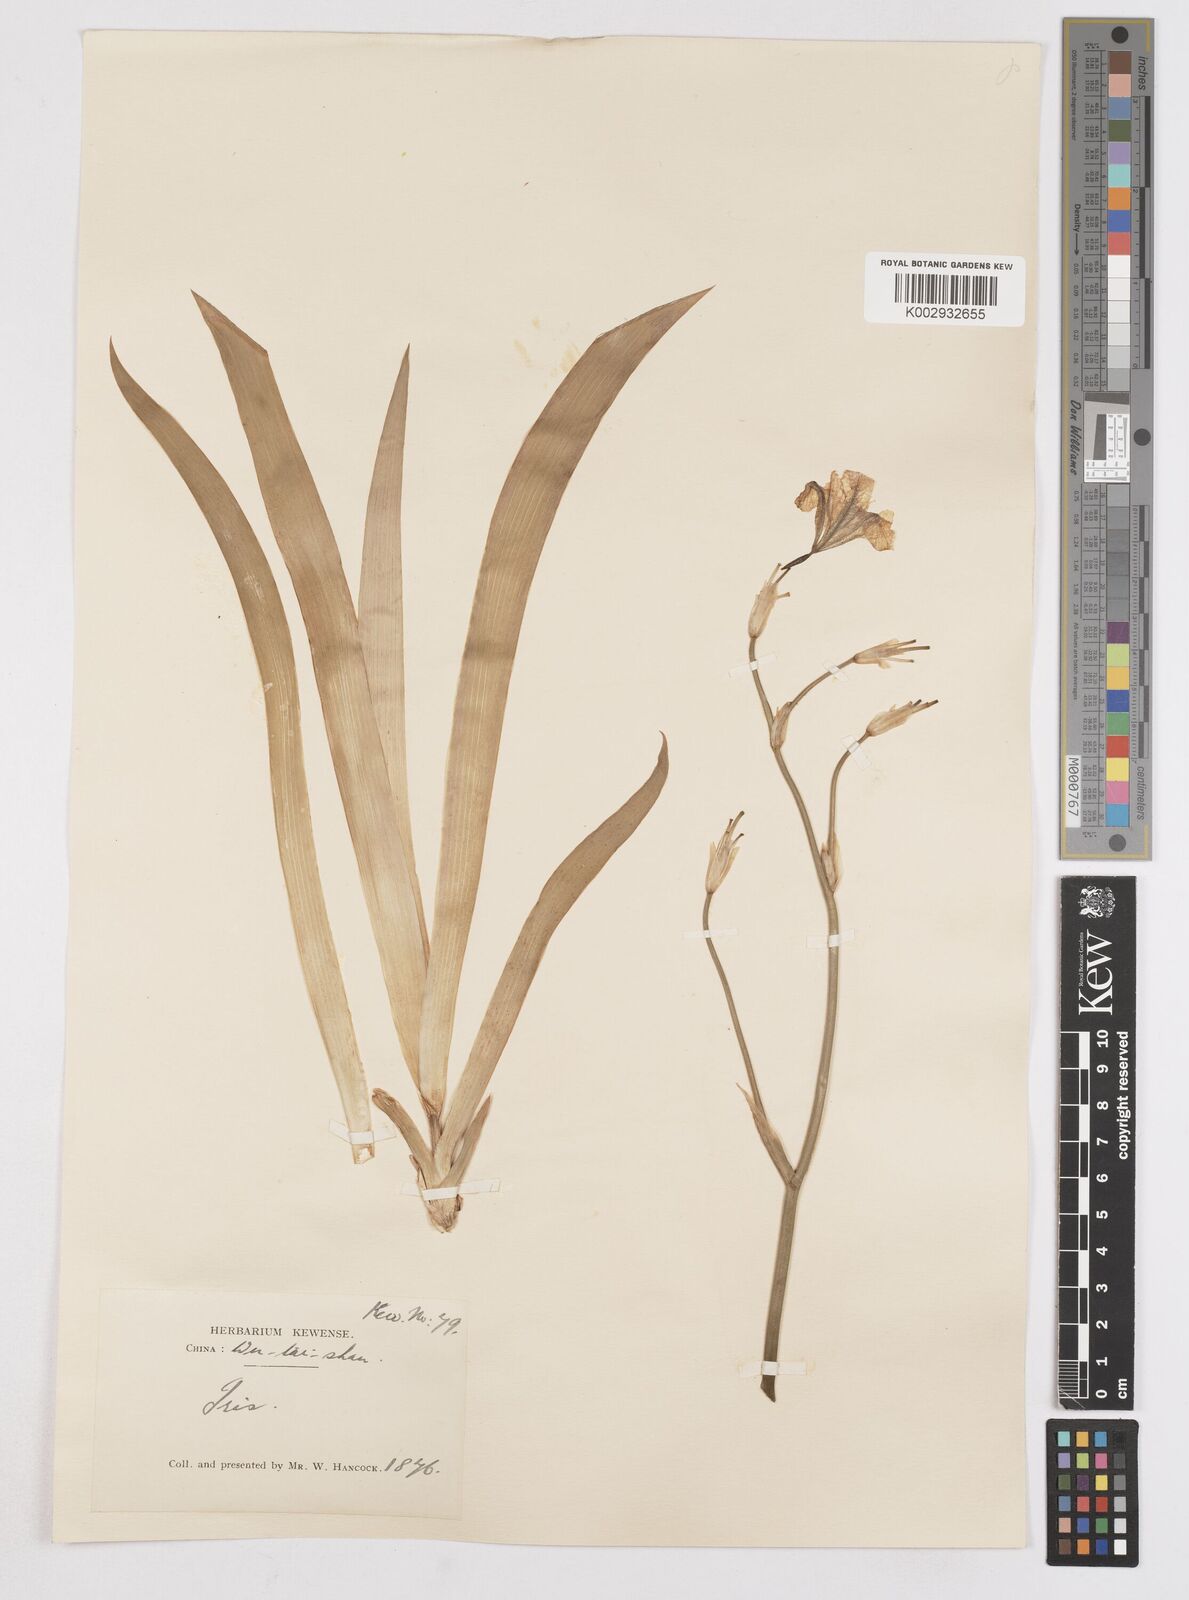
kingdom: Plantae
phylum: Tracheophyta
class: Liliopsida
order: Asparagales
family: Iridaceae
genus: Iris
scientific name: Iris
